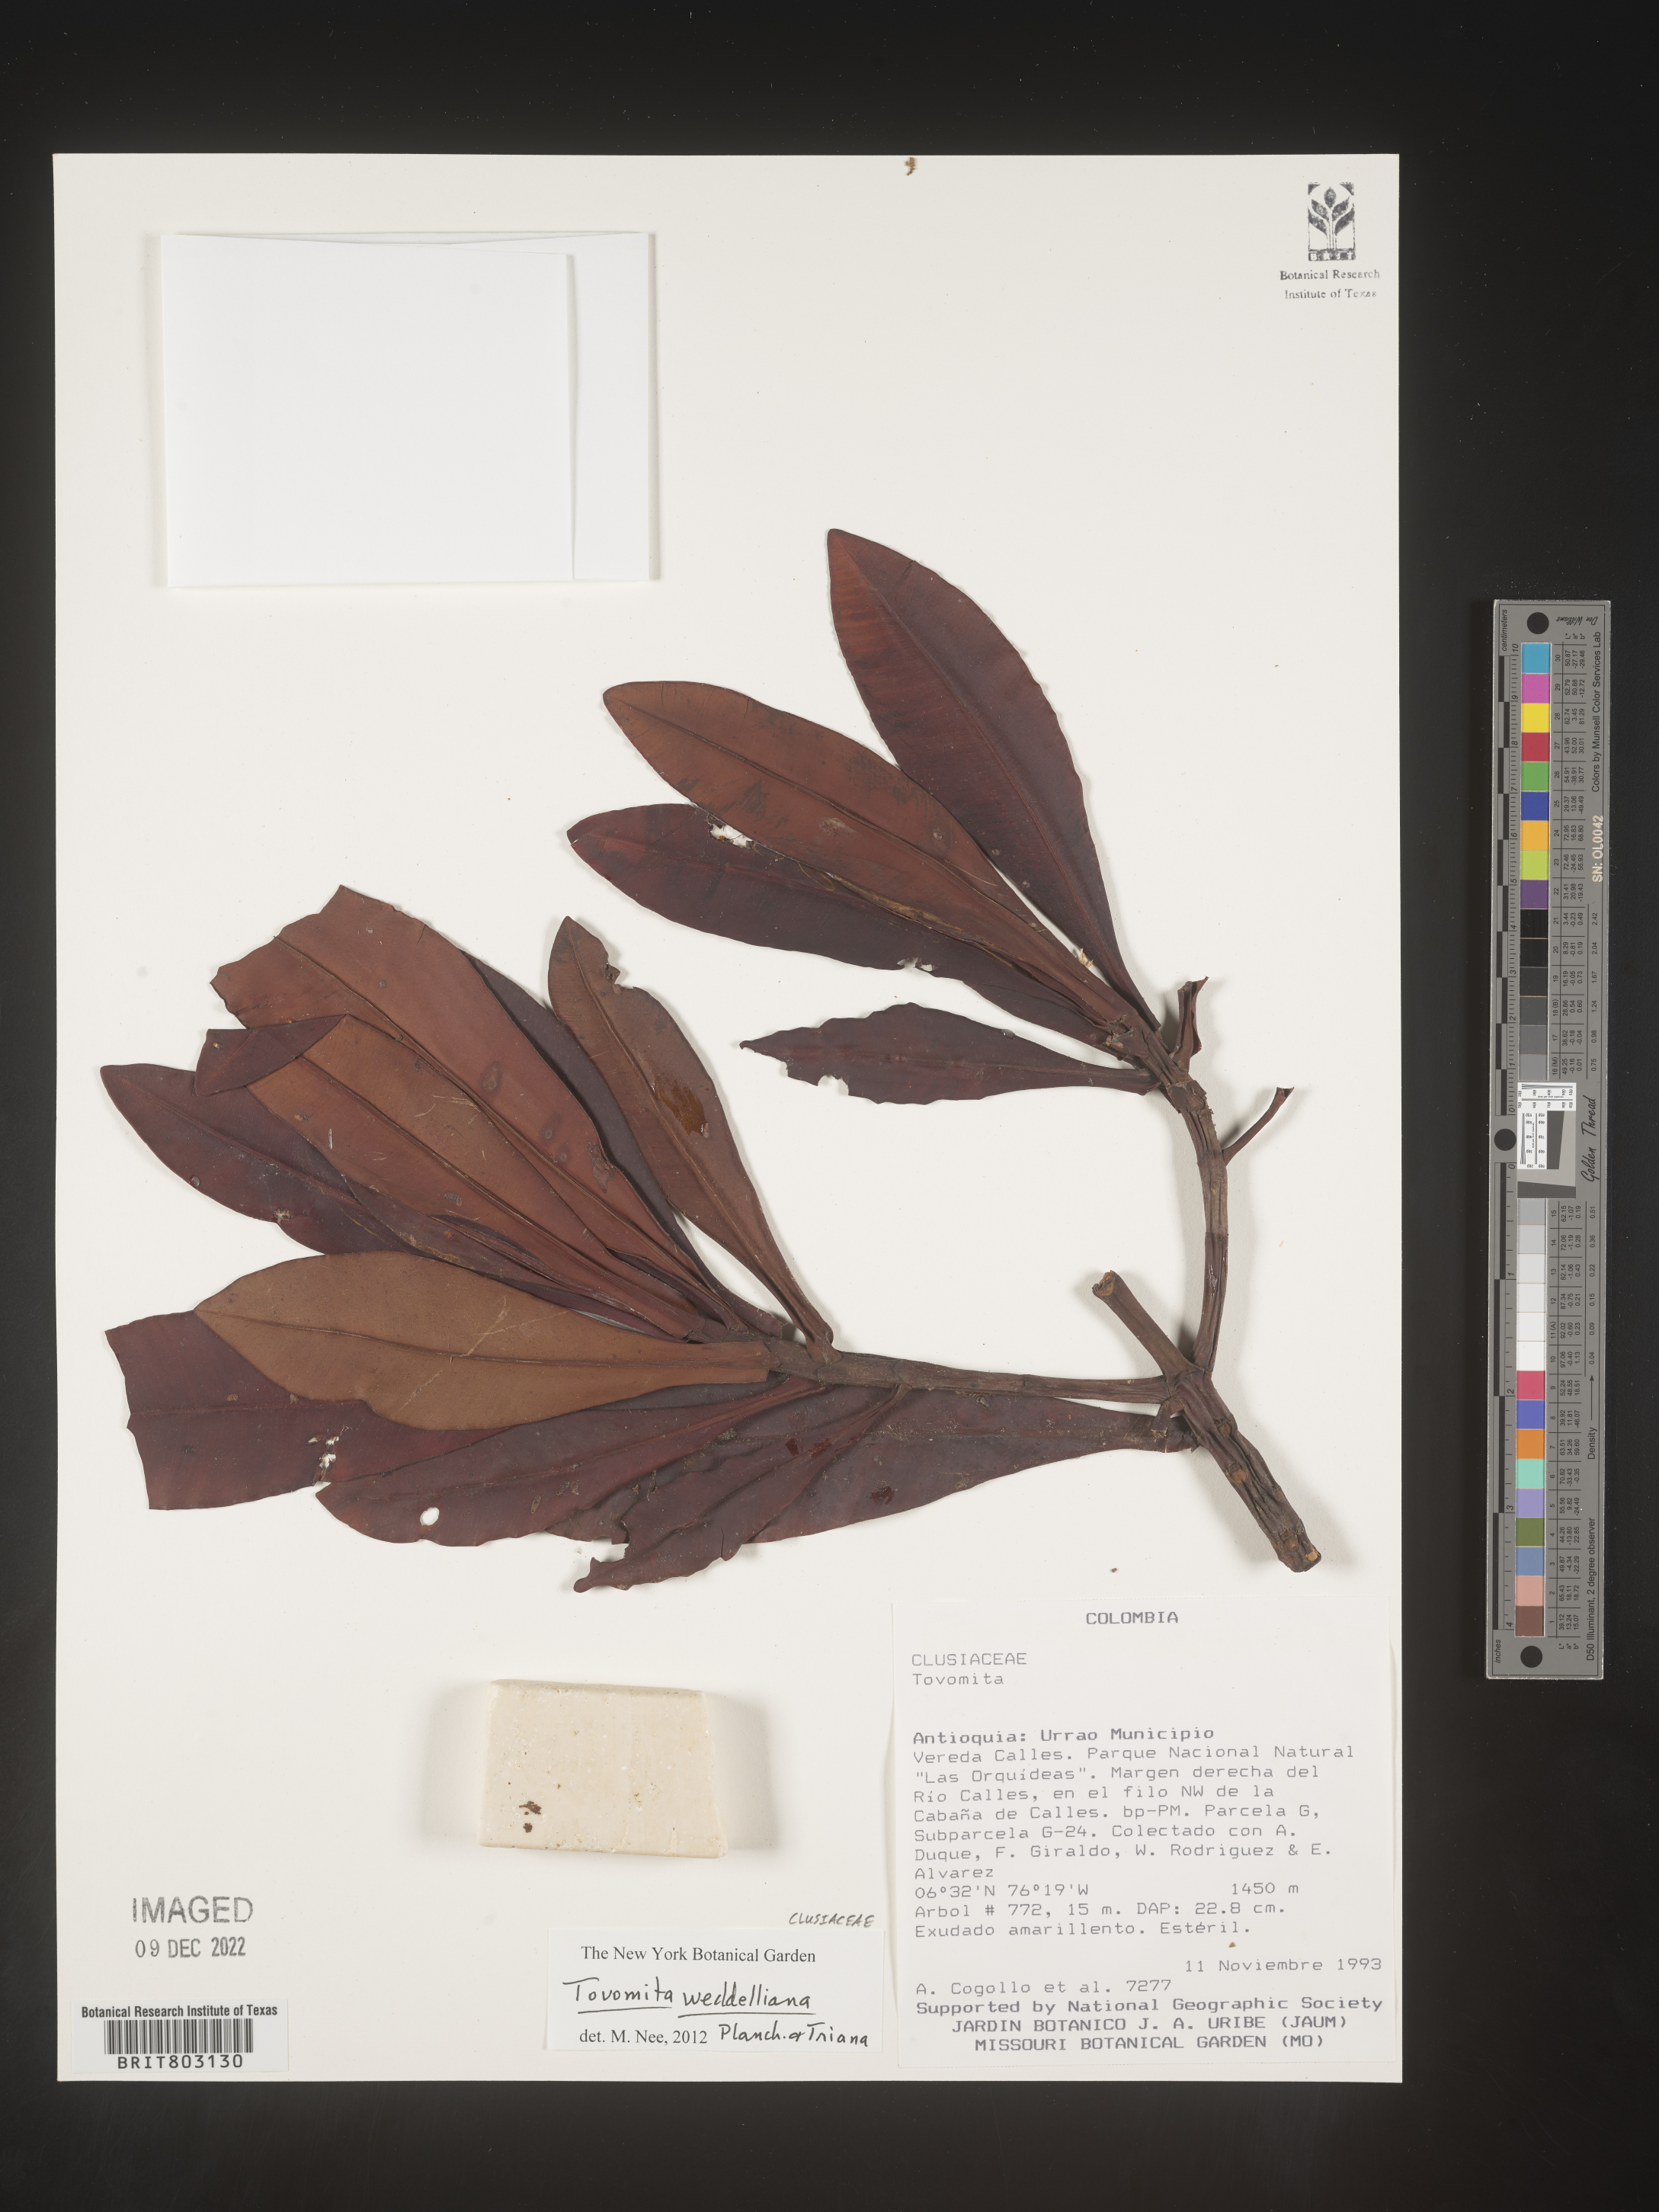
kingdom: Plantae
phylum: Tracheophyta
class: Magnoliopsida
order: Malpighiales
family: Clusiaceae
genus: Arawakia
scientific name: Arawakia weddelliana
